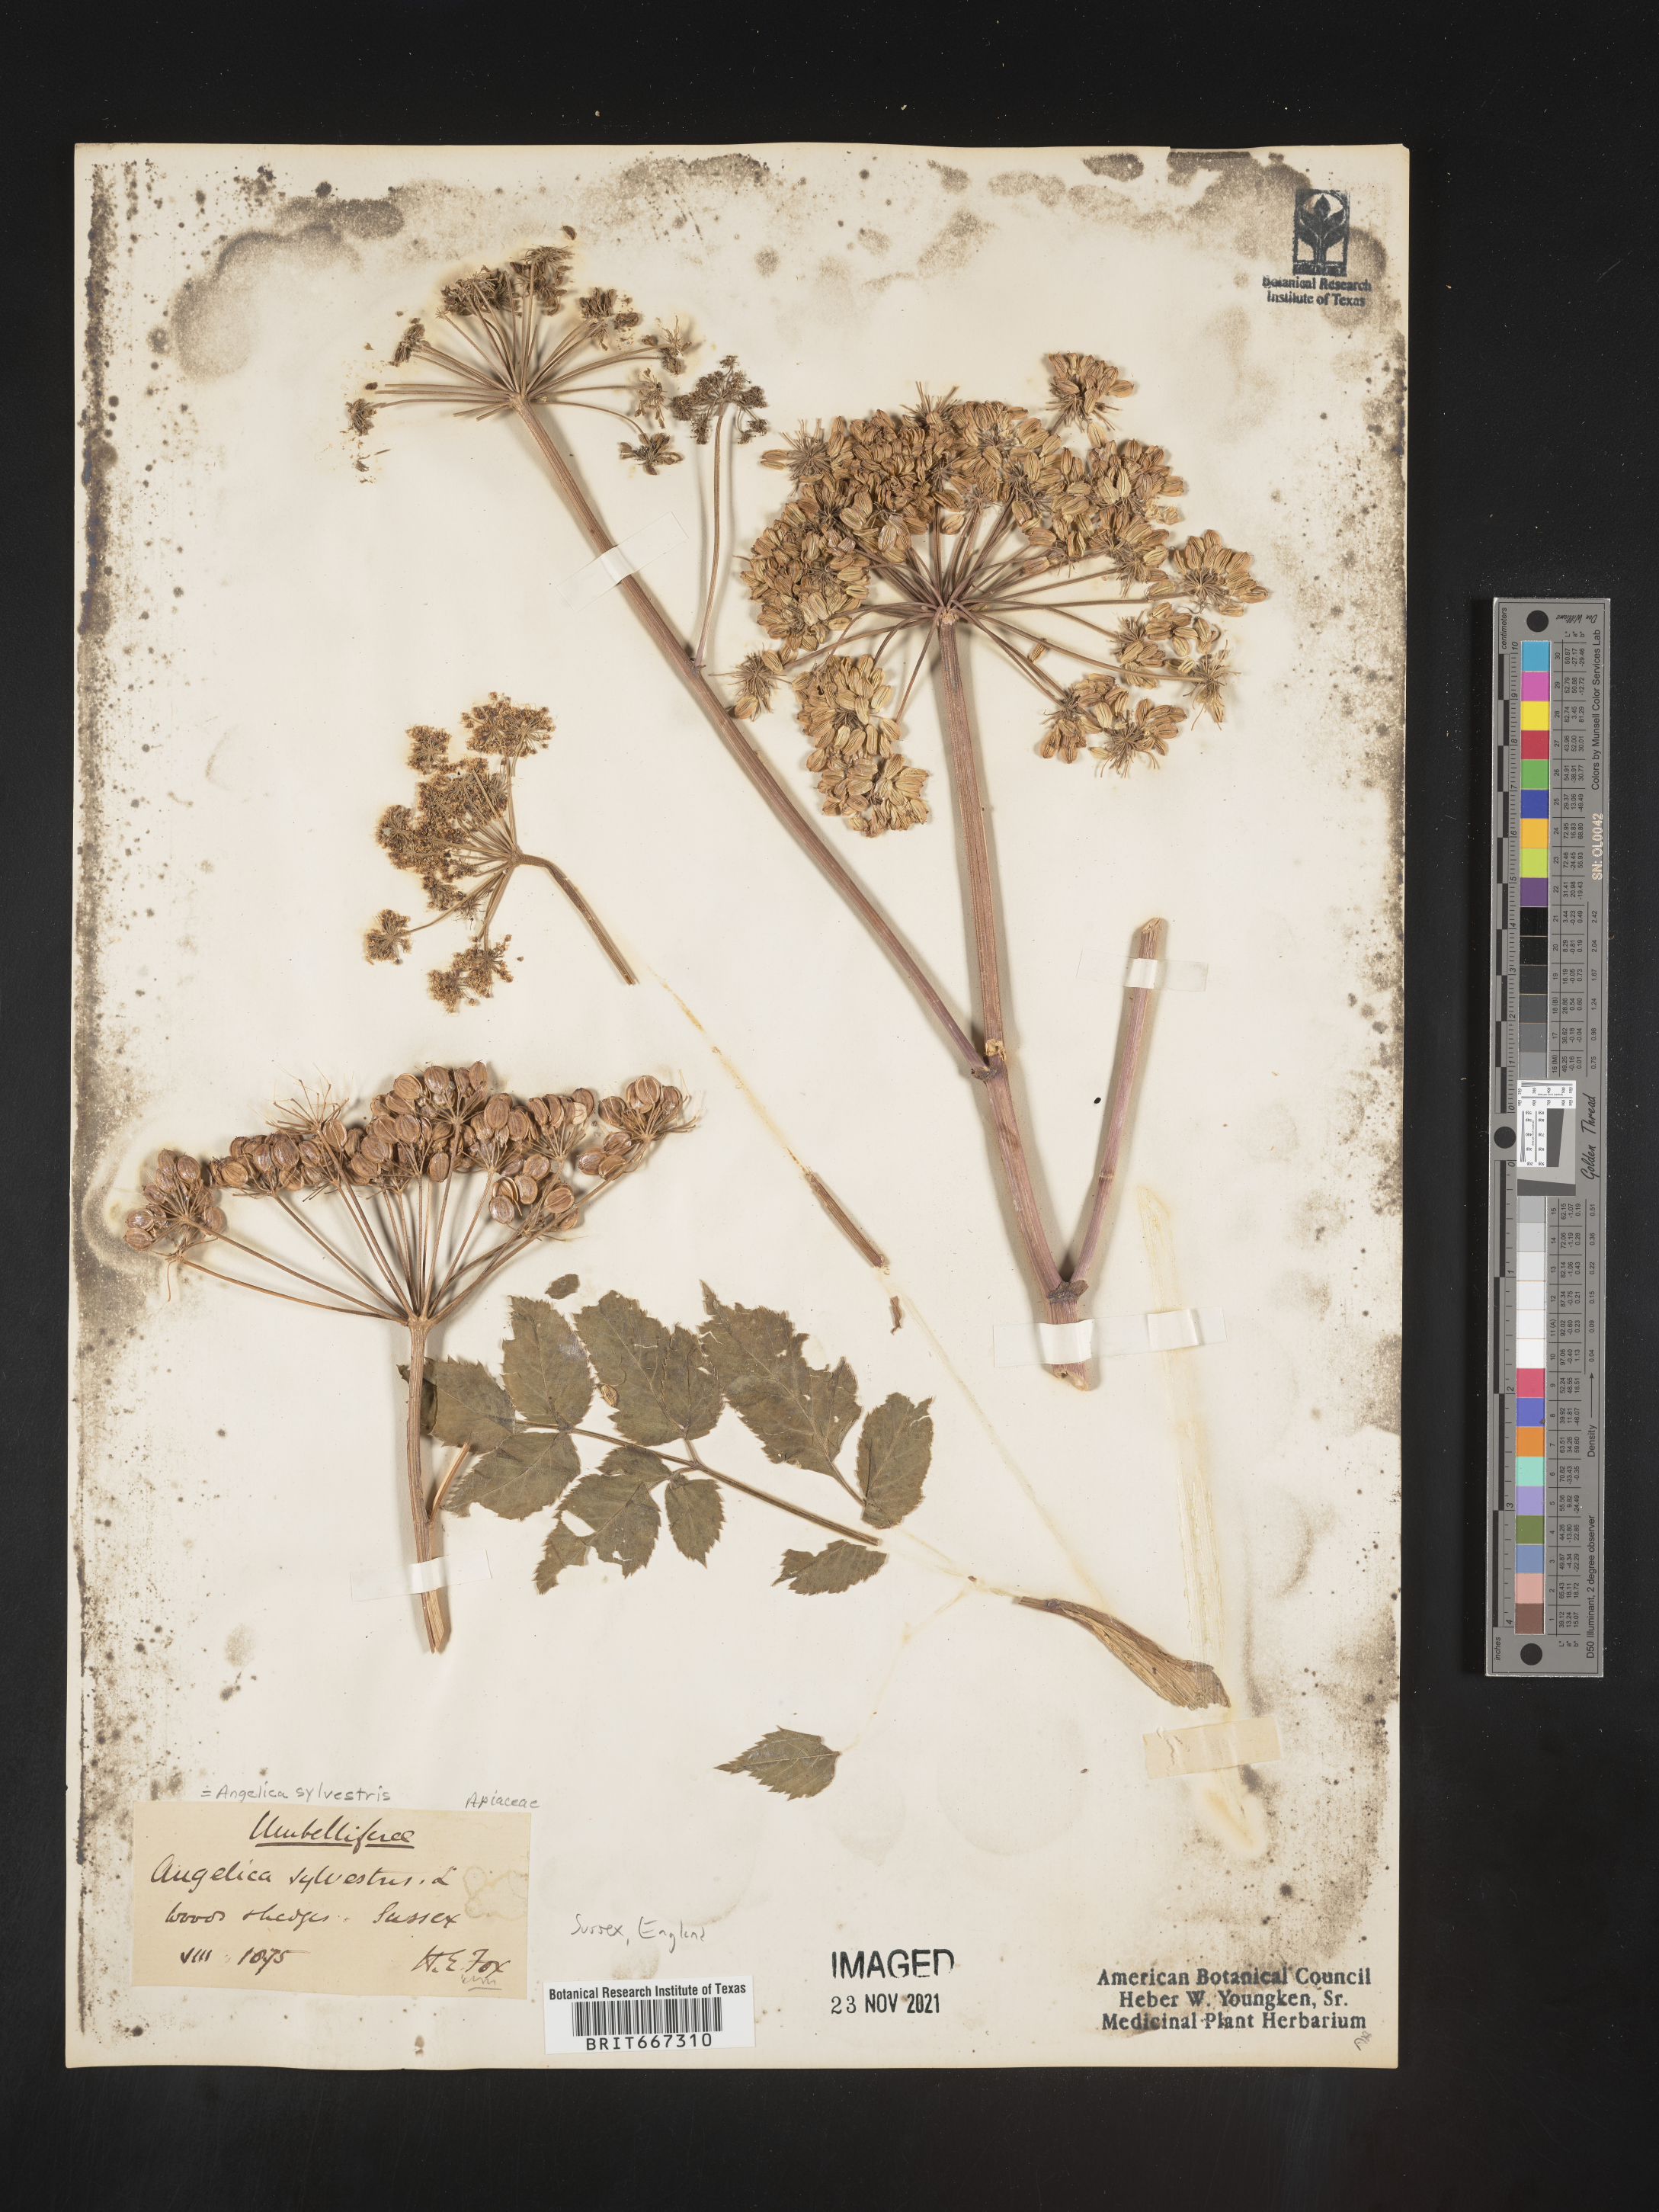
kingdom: Plantae
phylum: Tracheophyta
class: Magnoliopsida
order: Apiales
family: Apiaceae
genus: Angelica
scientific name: Angelica
